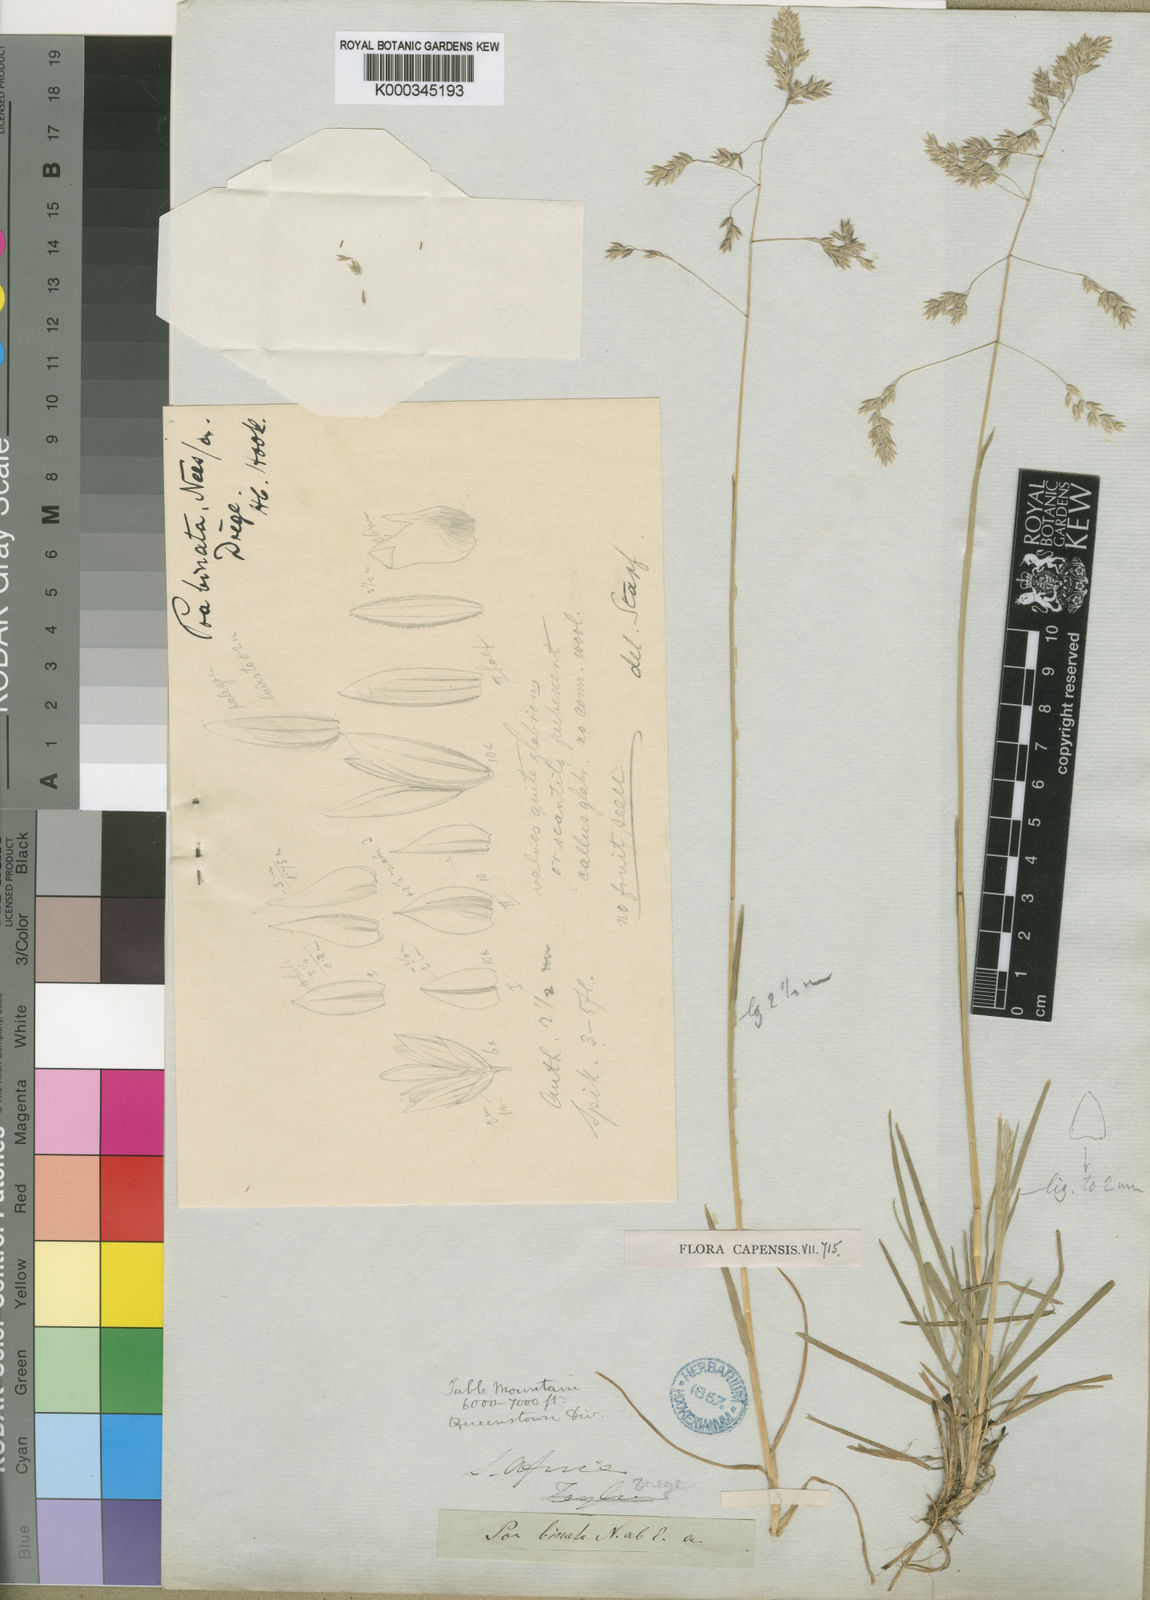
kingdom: Plantae
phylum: Tracheophyta
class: Liliopsida
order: Poales
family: Poaceae
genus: Poa
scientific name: Poa binata
